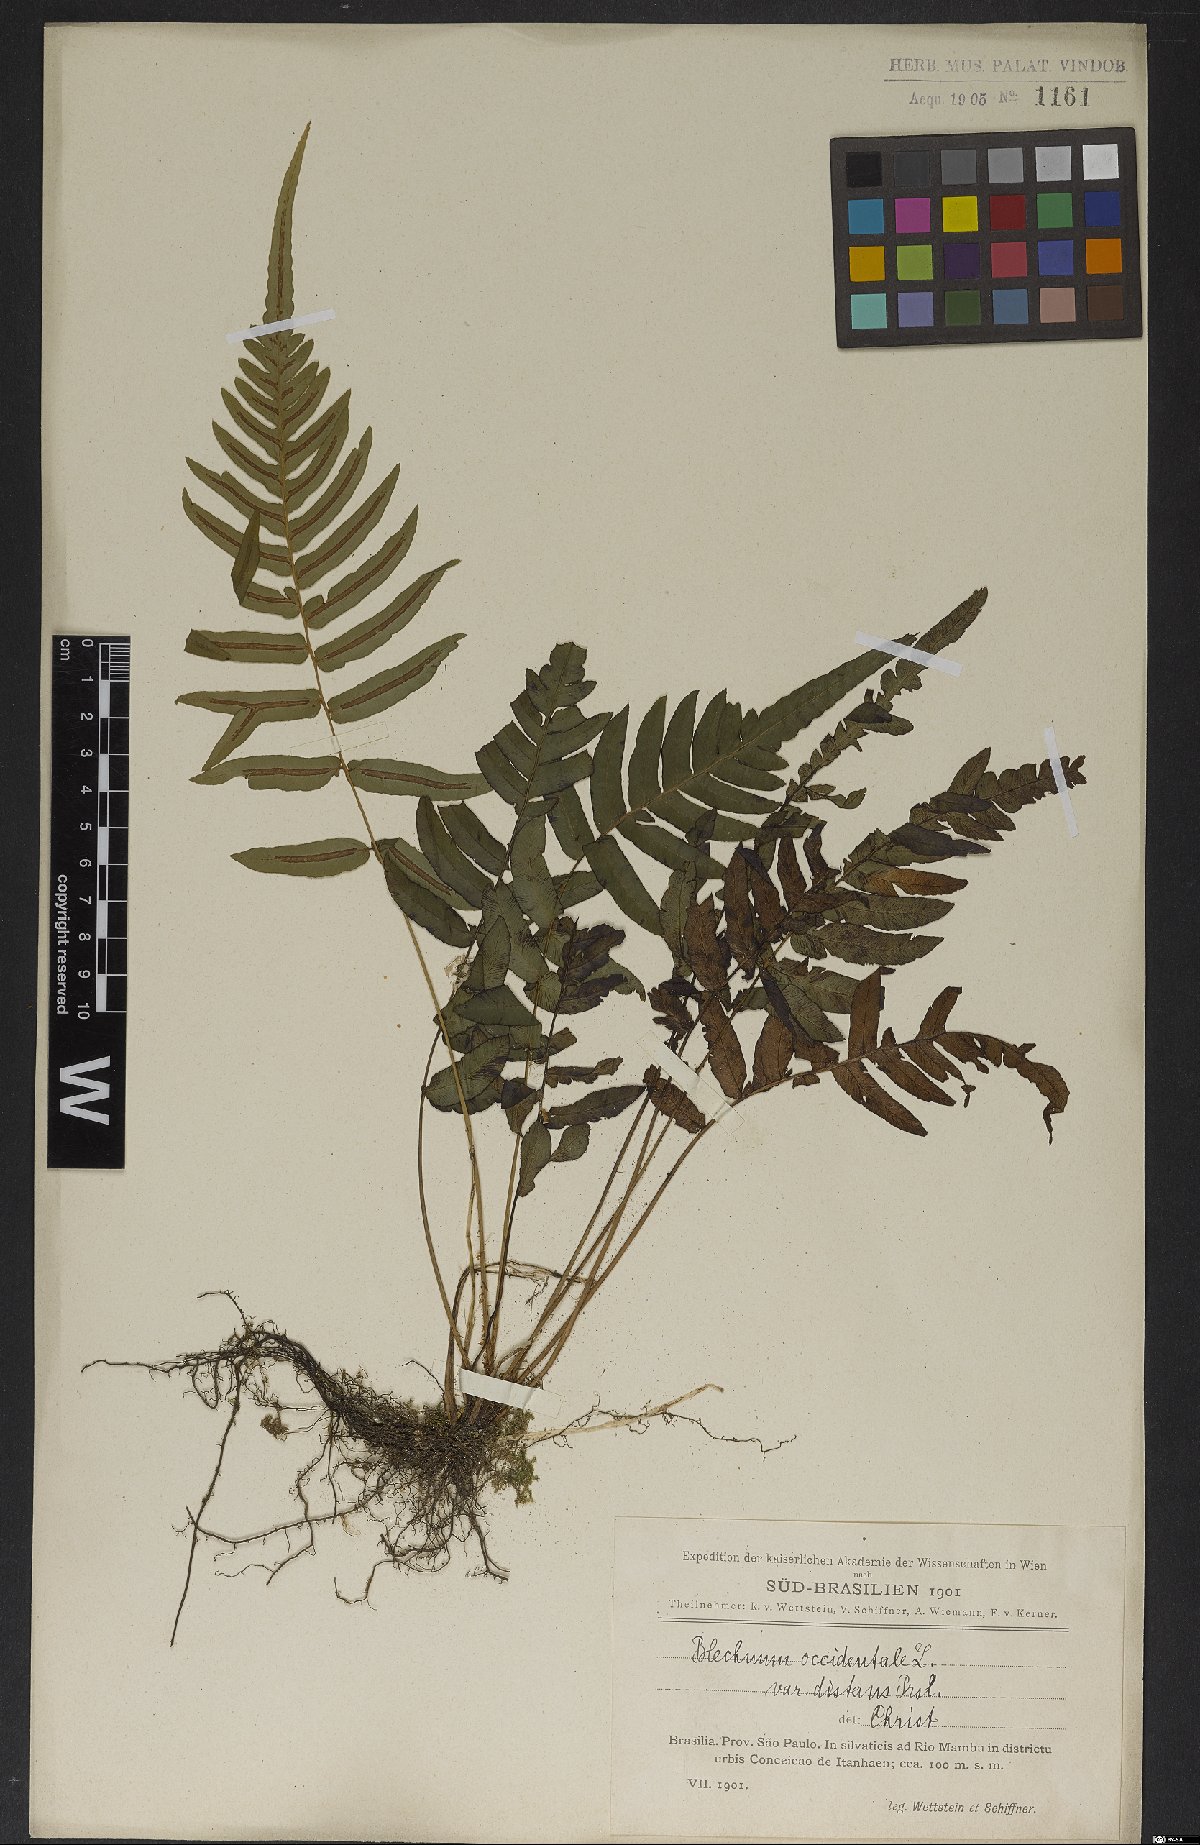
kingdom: Plantae
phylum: Tracheophyta
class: Polypodiopsida
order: Polypodiales
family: Blechnaceae
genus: Blechnum
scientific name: Blechnum occidentale
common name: Hammock fern
